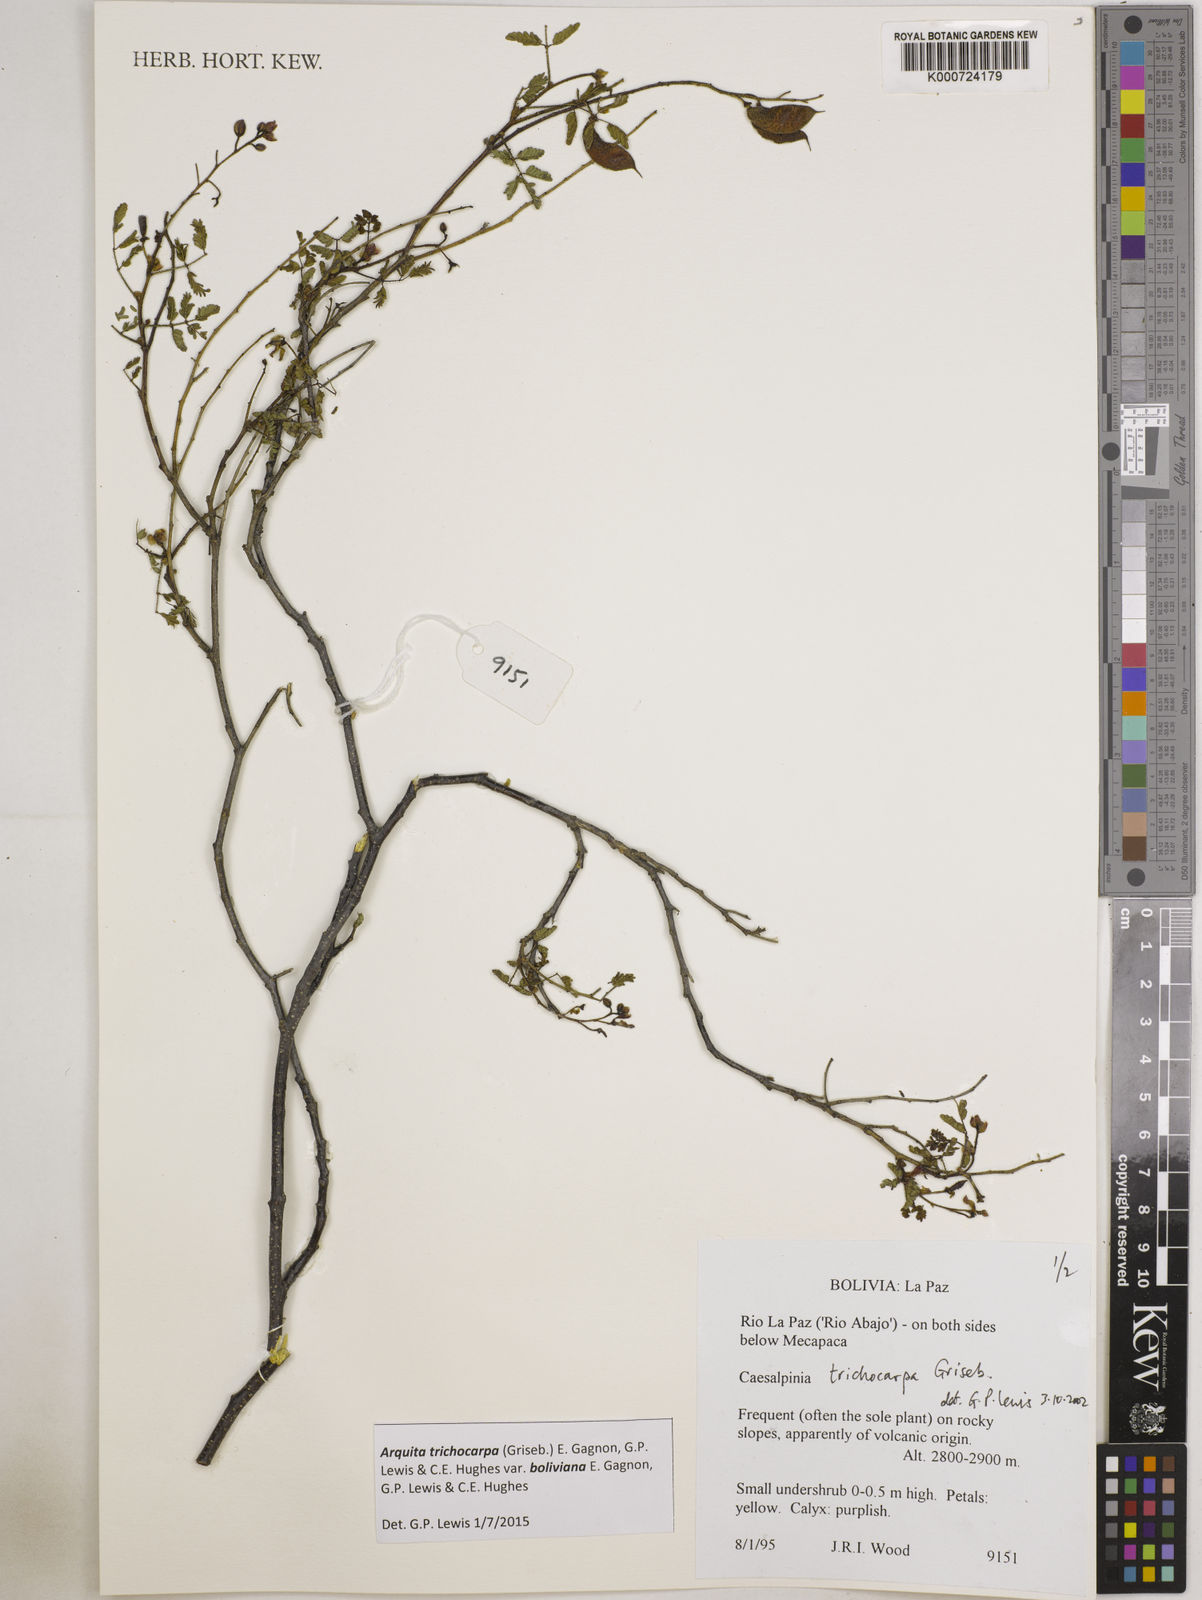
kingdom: Plantae
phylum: Tracheophyta
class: Magnoliopsida
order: Fabales
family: Fabaceae
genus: Arquita
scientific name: Arquita trichocarpa
